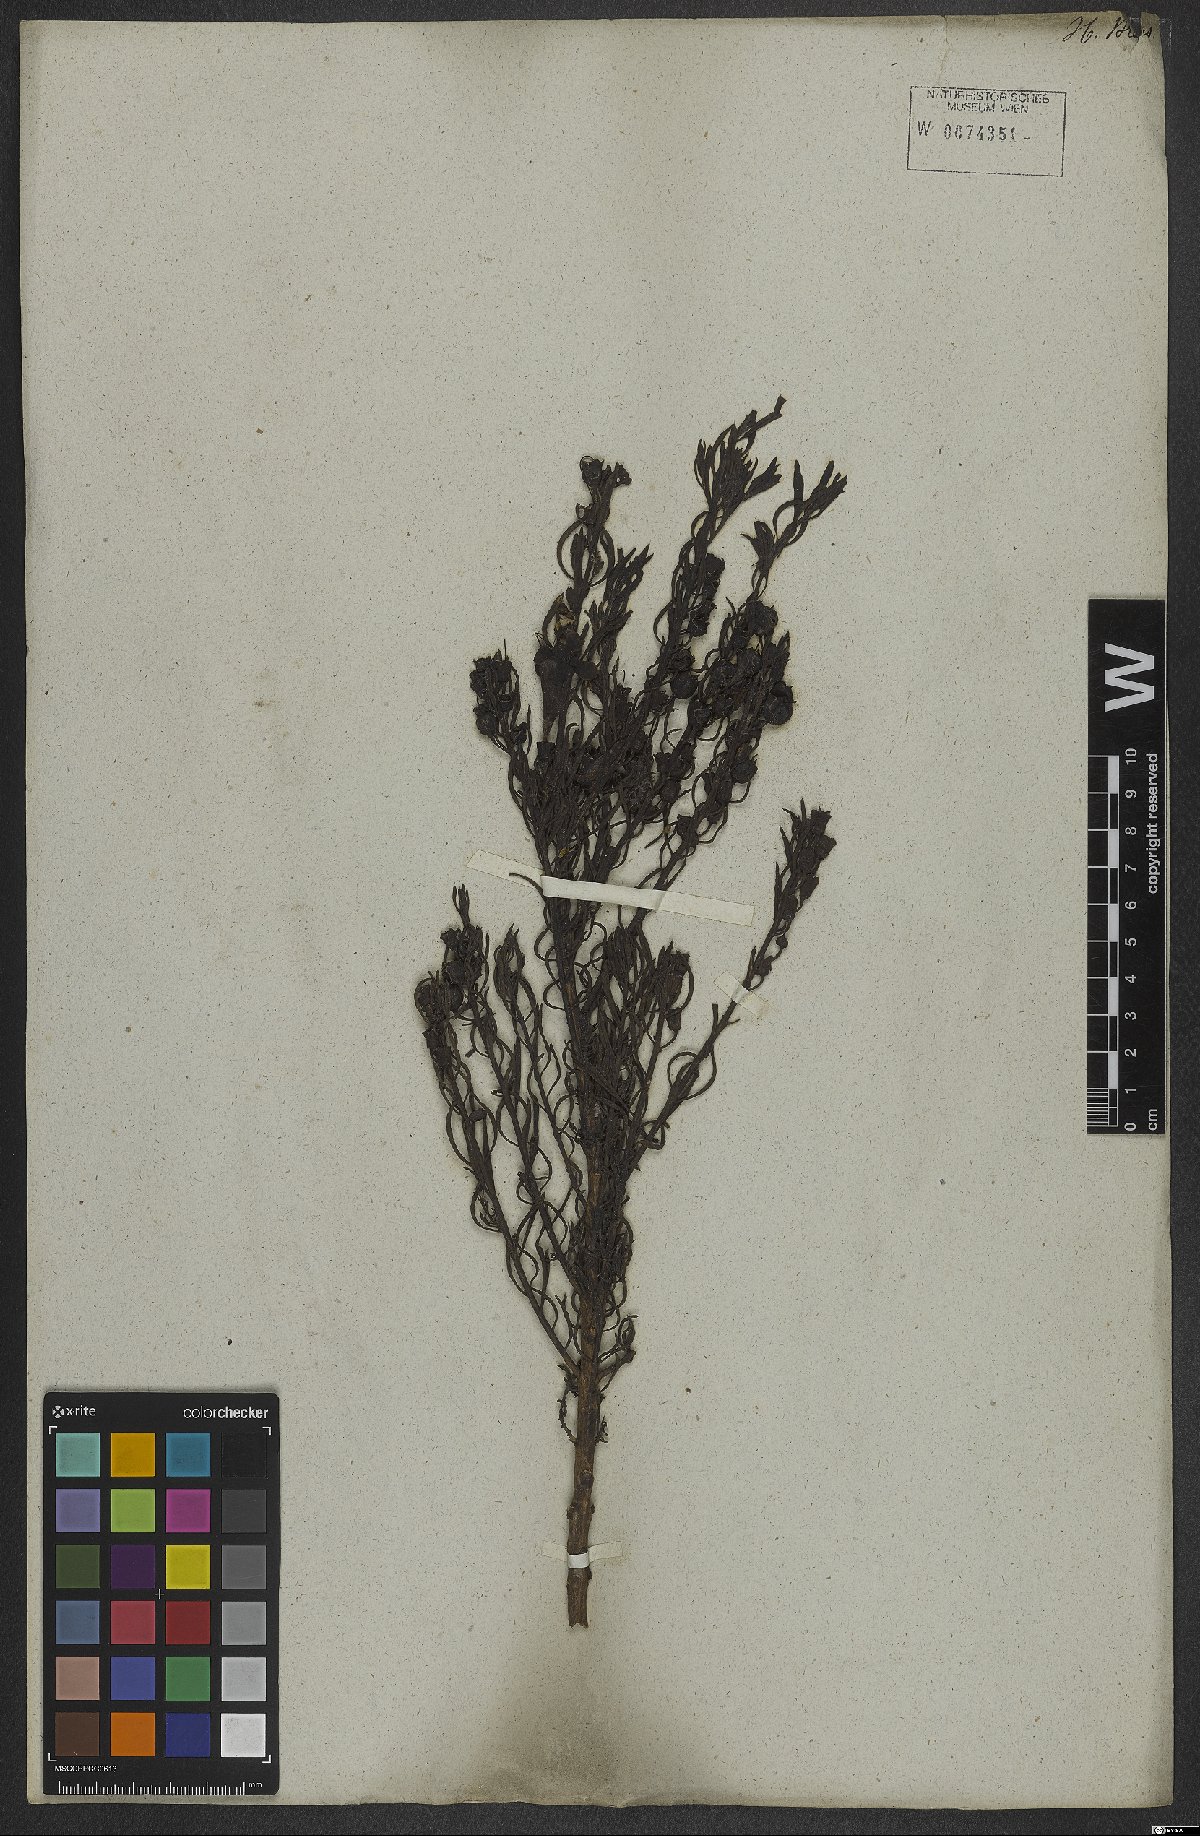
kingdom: Plantae
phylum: Tracheophyta
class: Magnoliopsida
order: Lamiales
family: Orobanchaceae
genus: Esterhazya
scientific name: Esterhazya splendida
